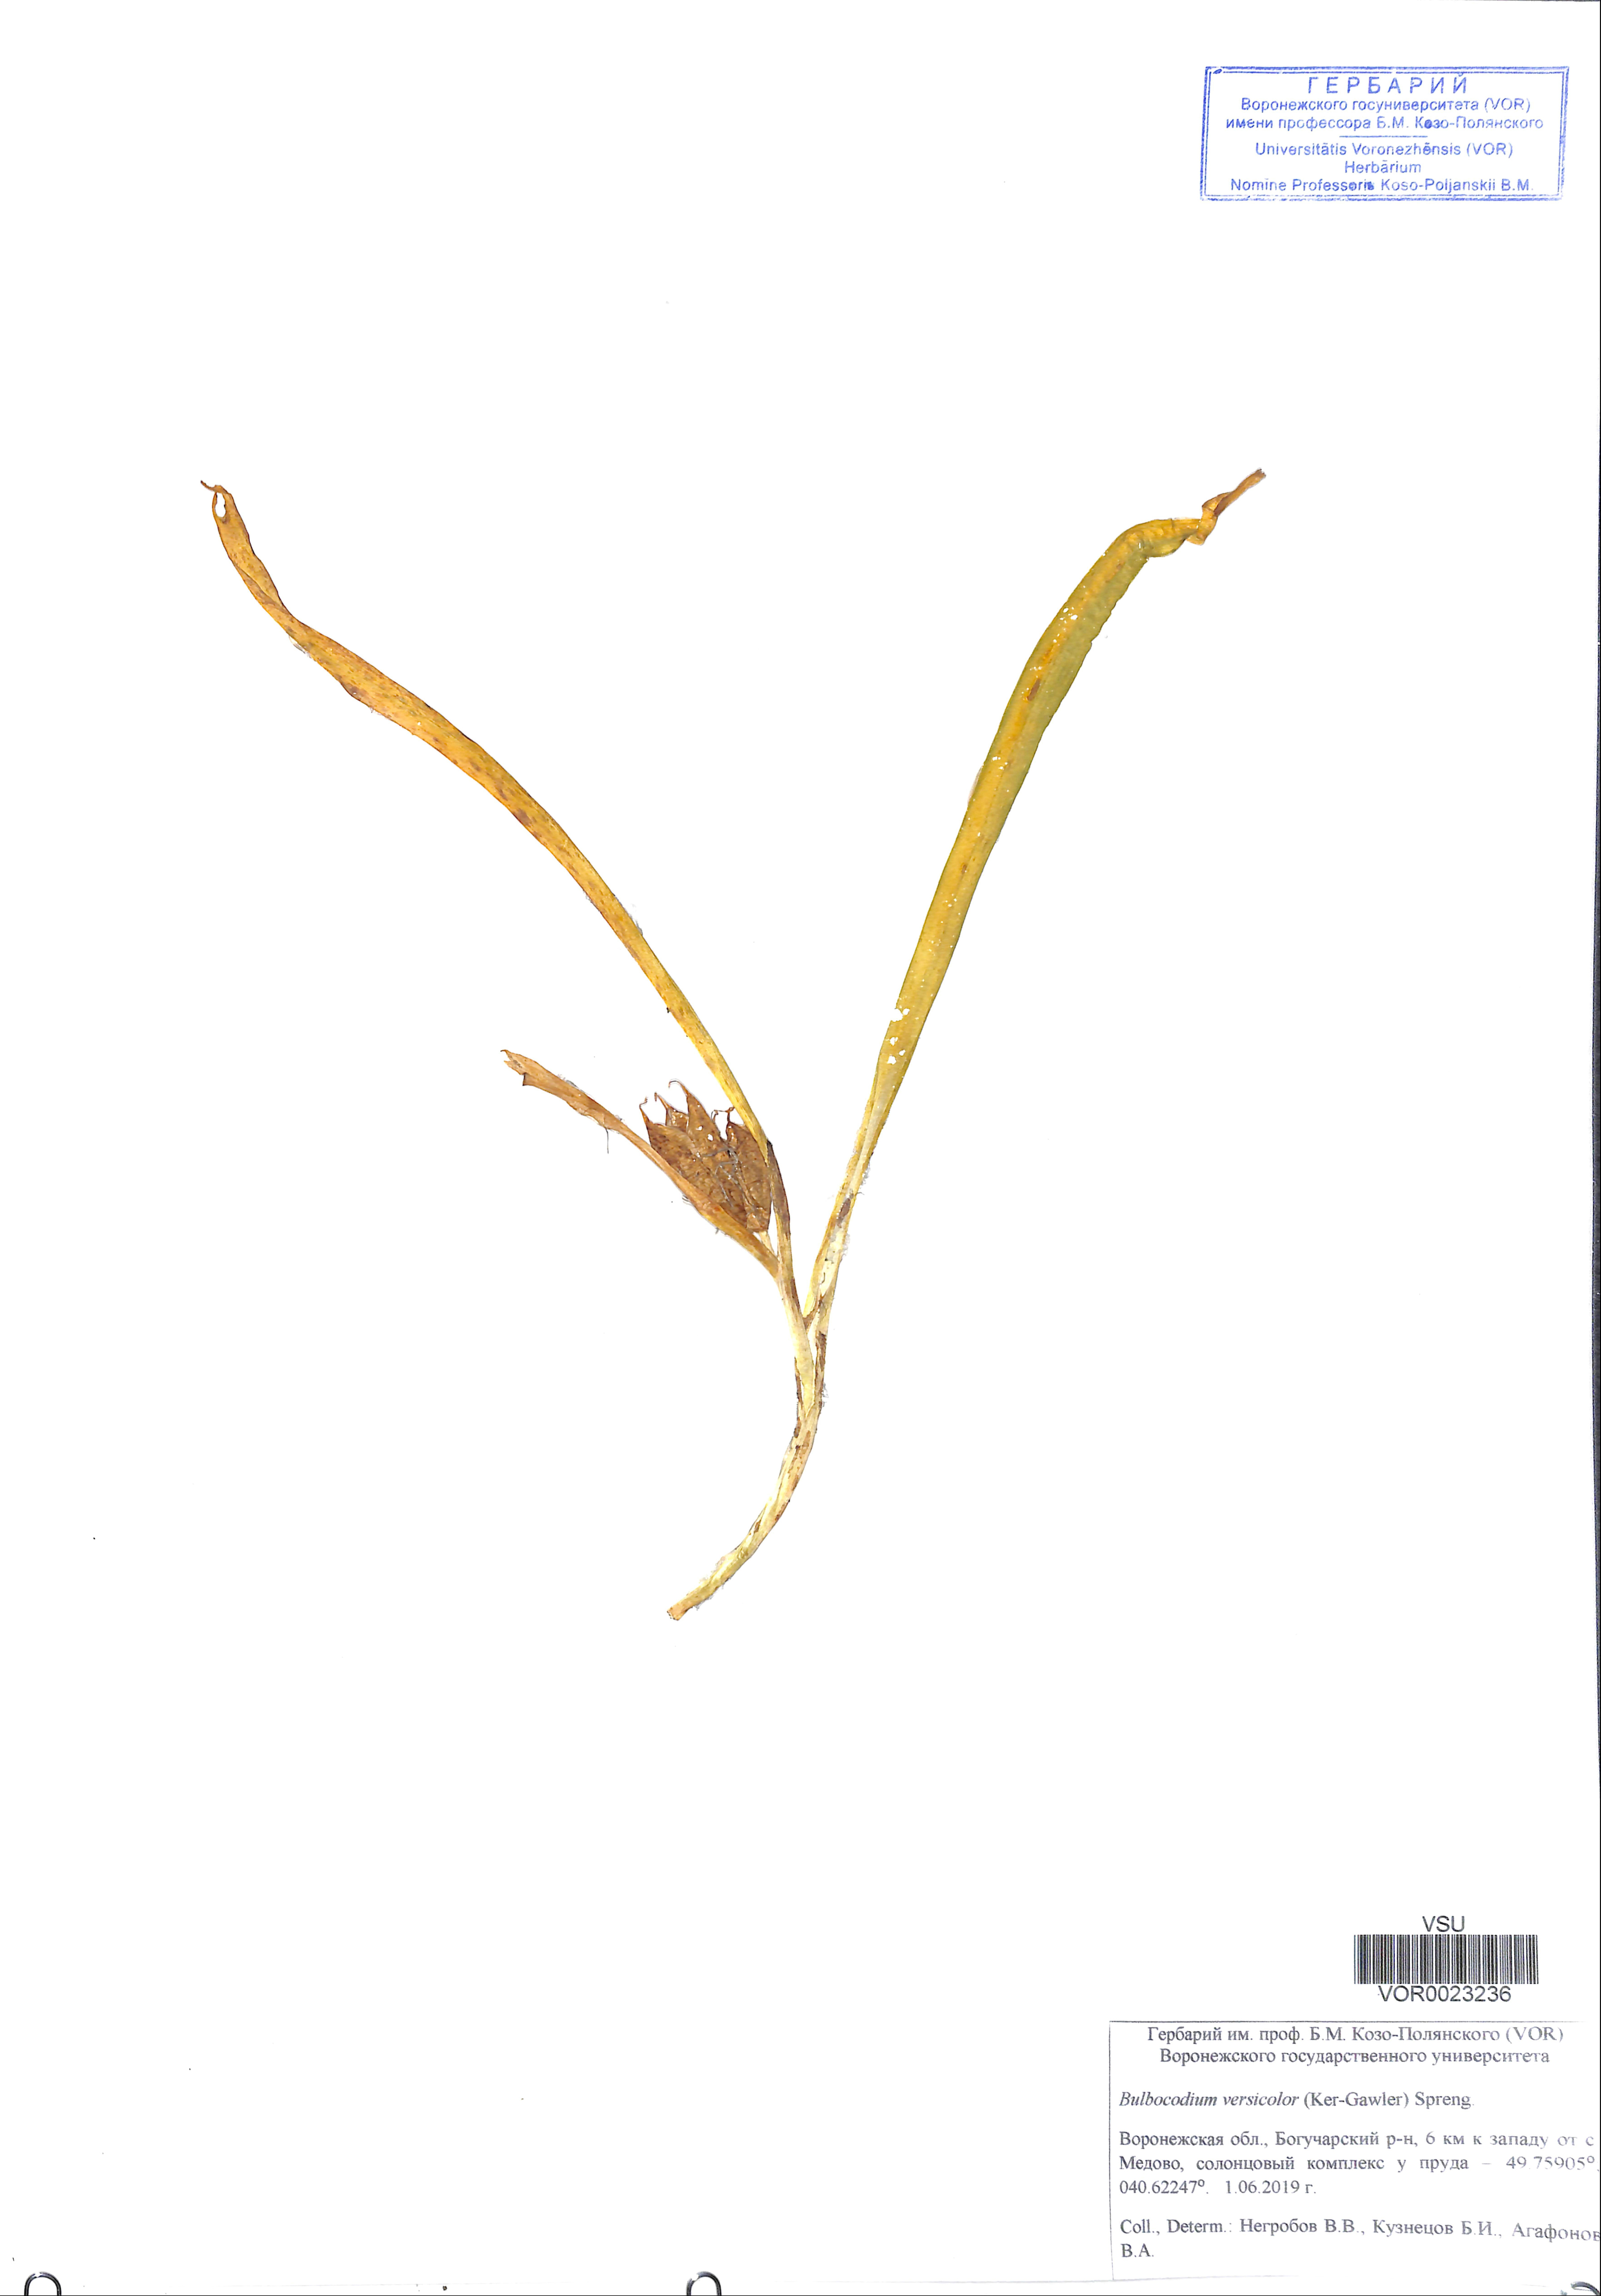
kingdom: Plantae
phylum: Tracheophyta
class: Liliopsida
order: Liliales
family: Colchicaceae
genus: Colchicum
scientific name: Colchicum bulbocodium
